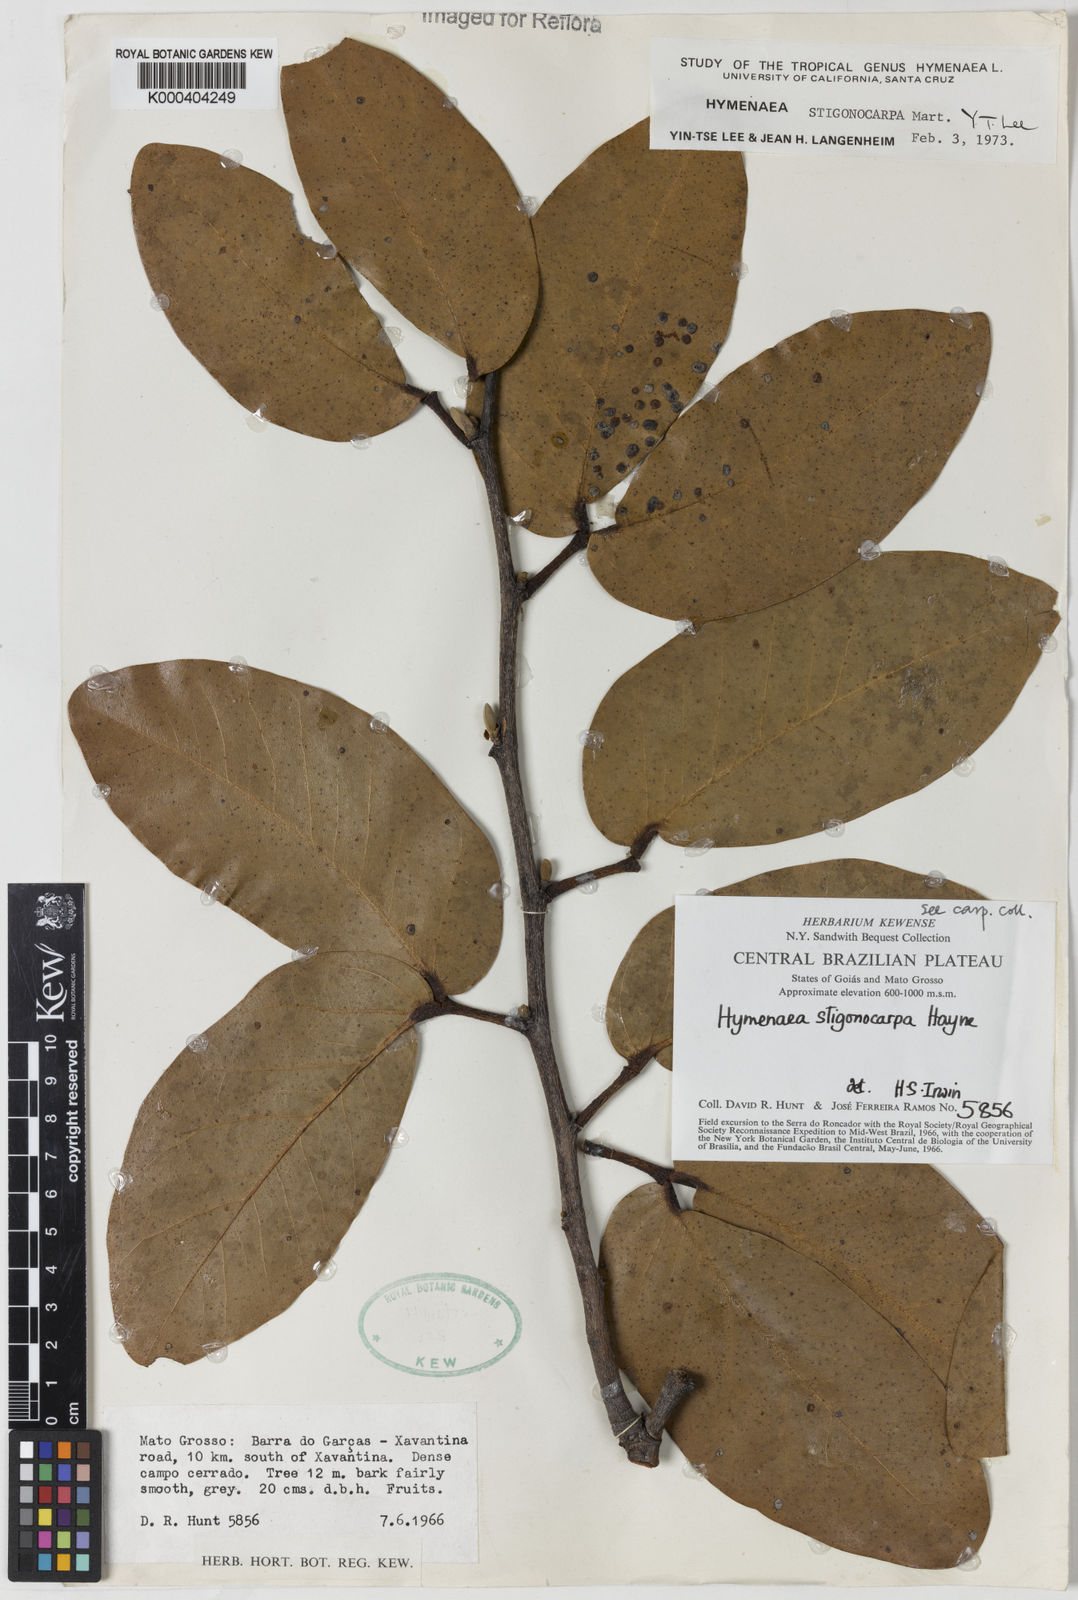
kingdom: Plantae
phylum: Tracheophyta
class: Magnoliopsida
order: Fabales
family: Fabaceae
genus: Hymenaea
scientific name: Hymenaea stigonocarpa
